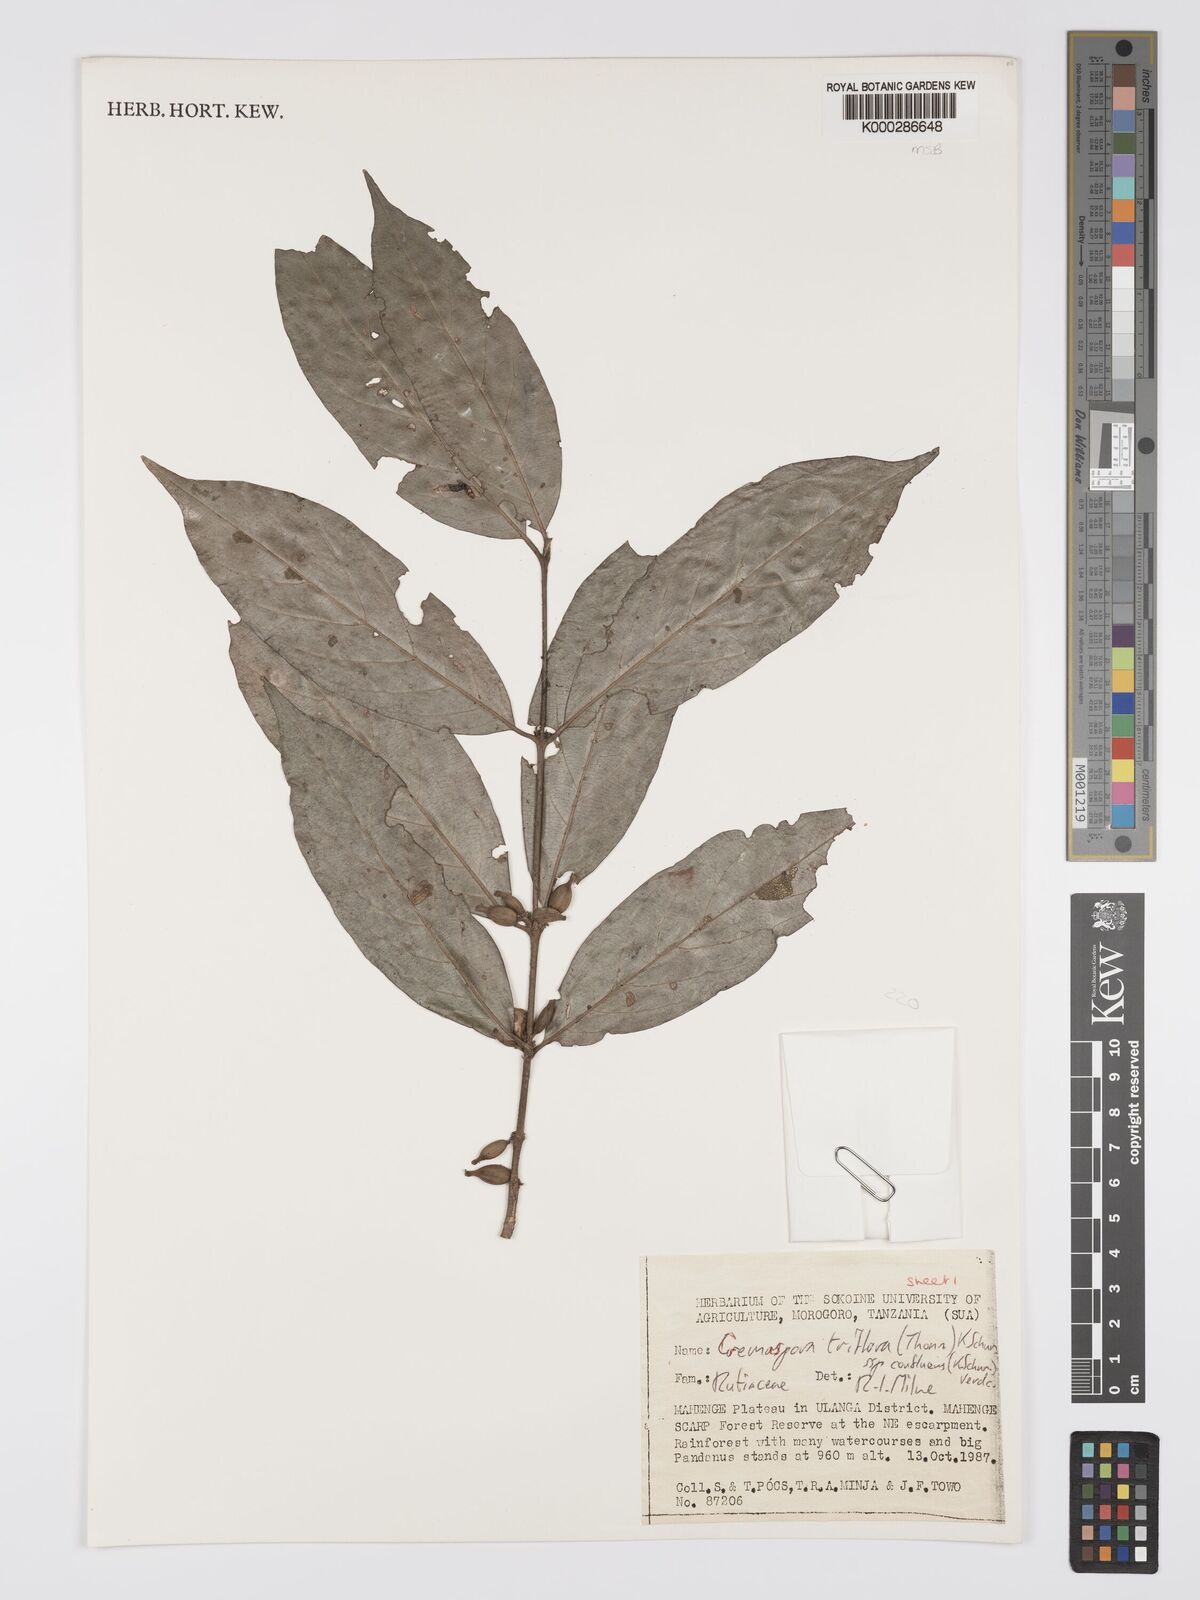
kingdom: Plantae
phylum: Tracheophyta
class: Magnoliopsida
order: Gentianales
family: Rubiaceae
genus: Cremaspora
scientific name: Cremaspora triflora
